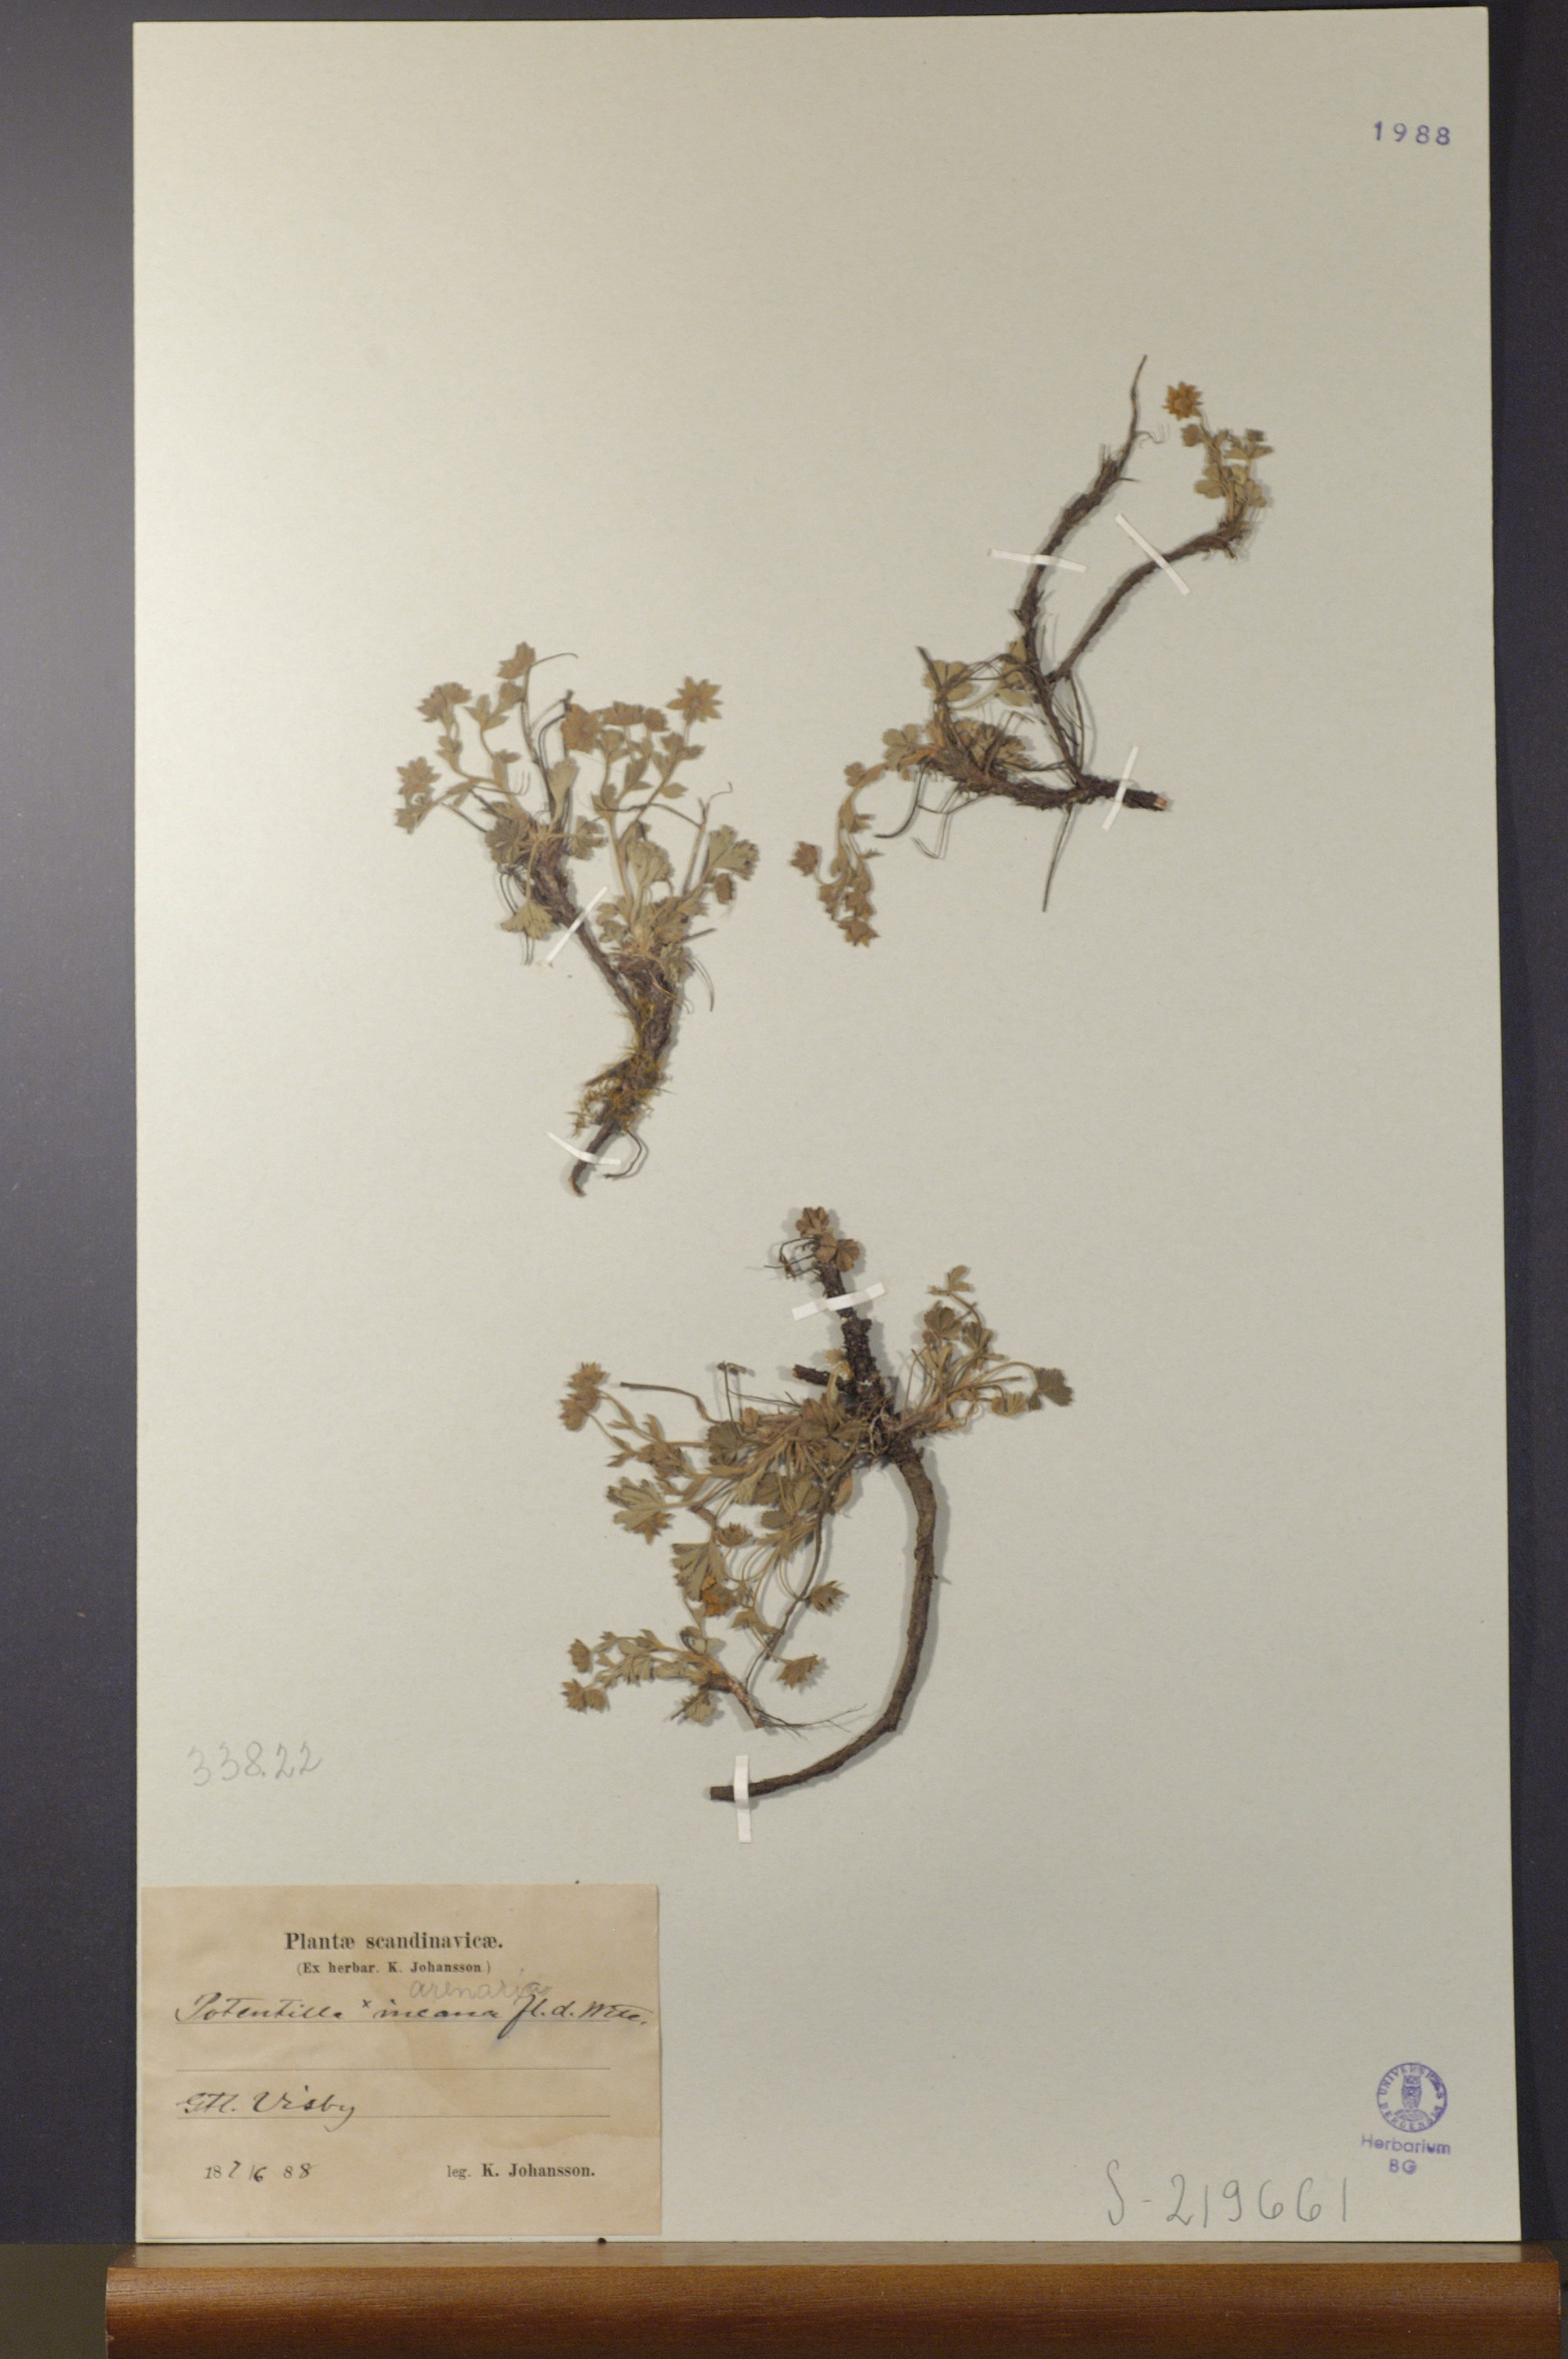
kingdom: Plantae
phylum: Tracheophyta
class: Magnoliopsida
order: Rosales
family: Rosaceae
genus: Potentilla
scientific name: Potentilla cinerea
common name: Ashy cinquefoil
